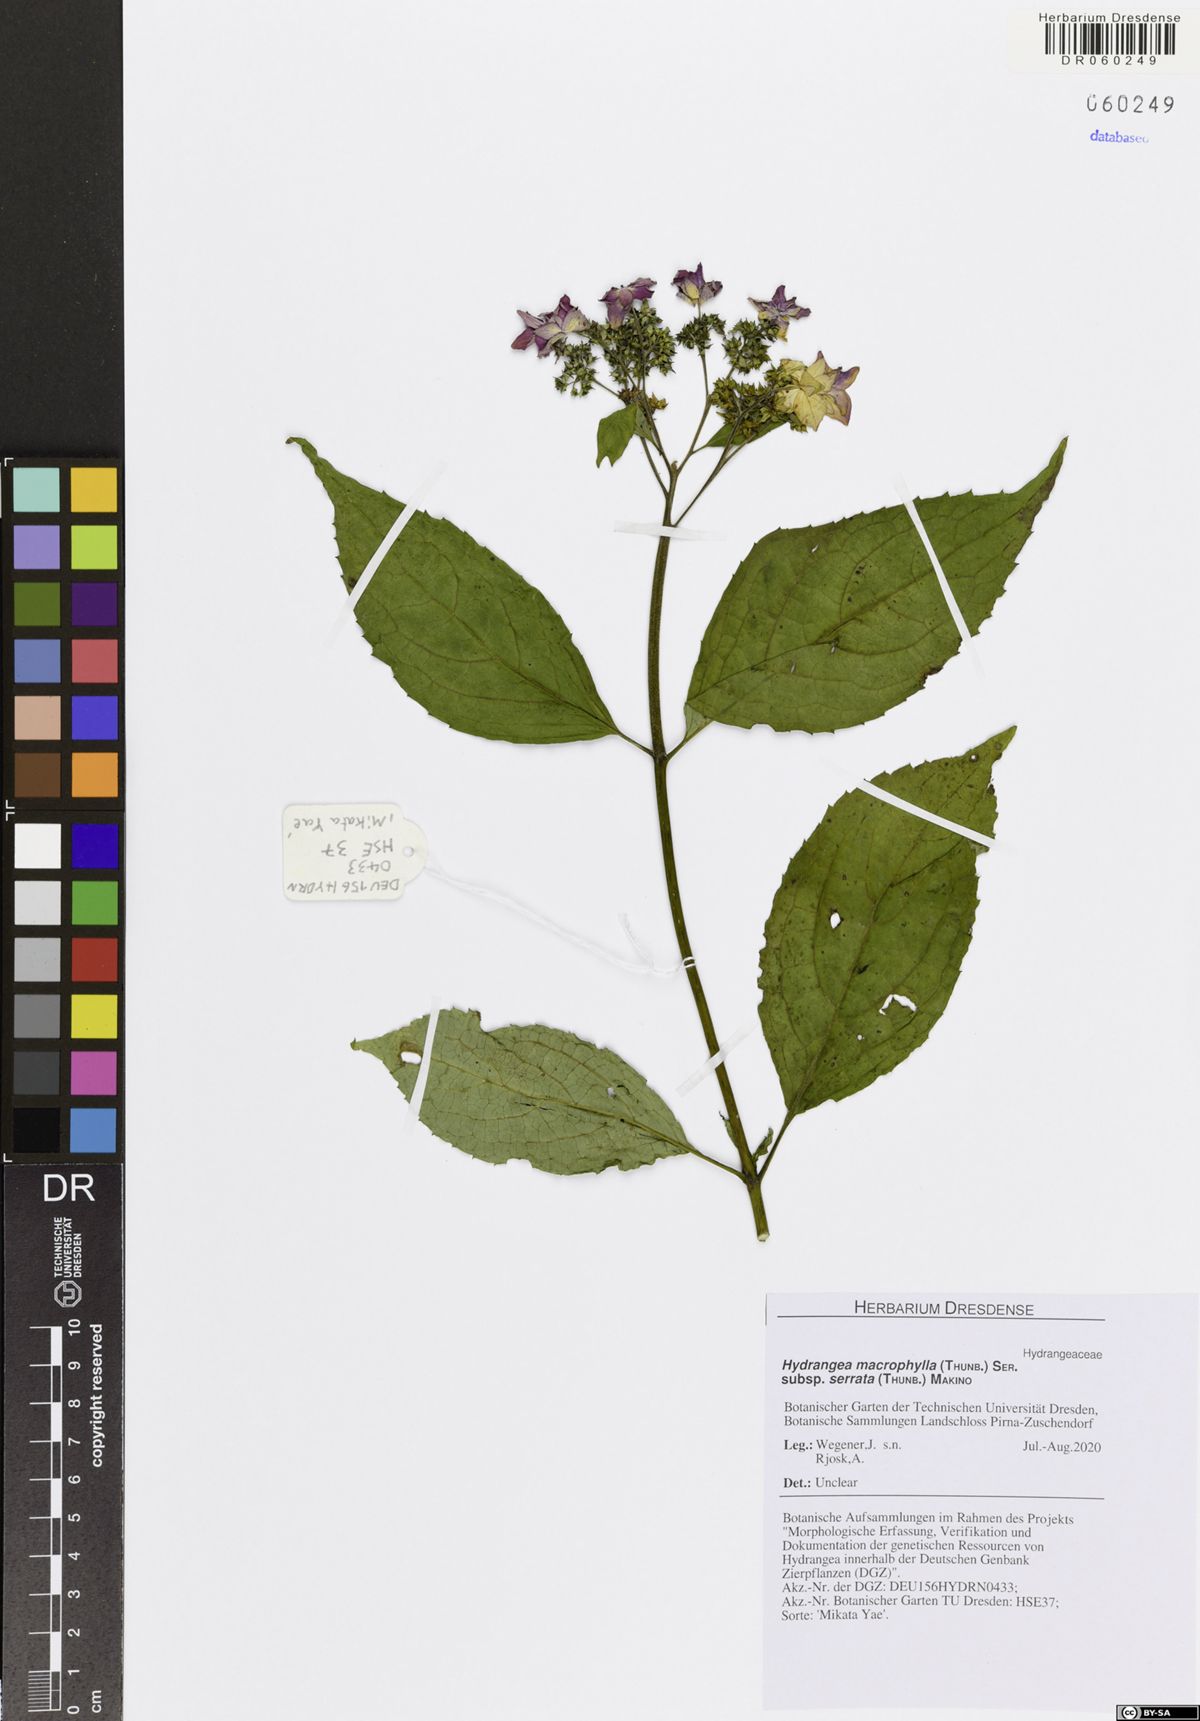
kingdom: Plantae
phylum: Tracheophyta
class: Magnoliopsida
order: Cornales
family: Hydrangeaceae
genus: Hydrangea
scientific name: Hydrangea serrata
